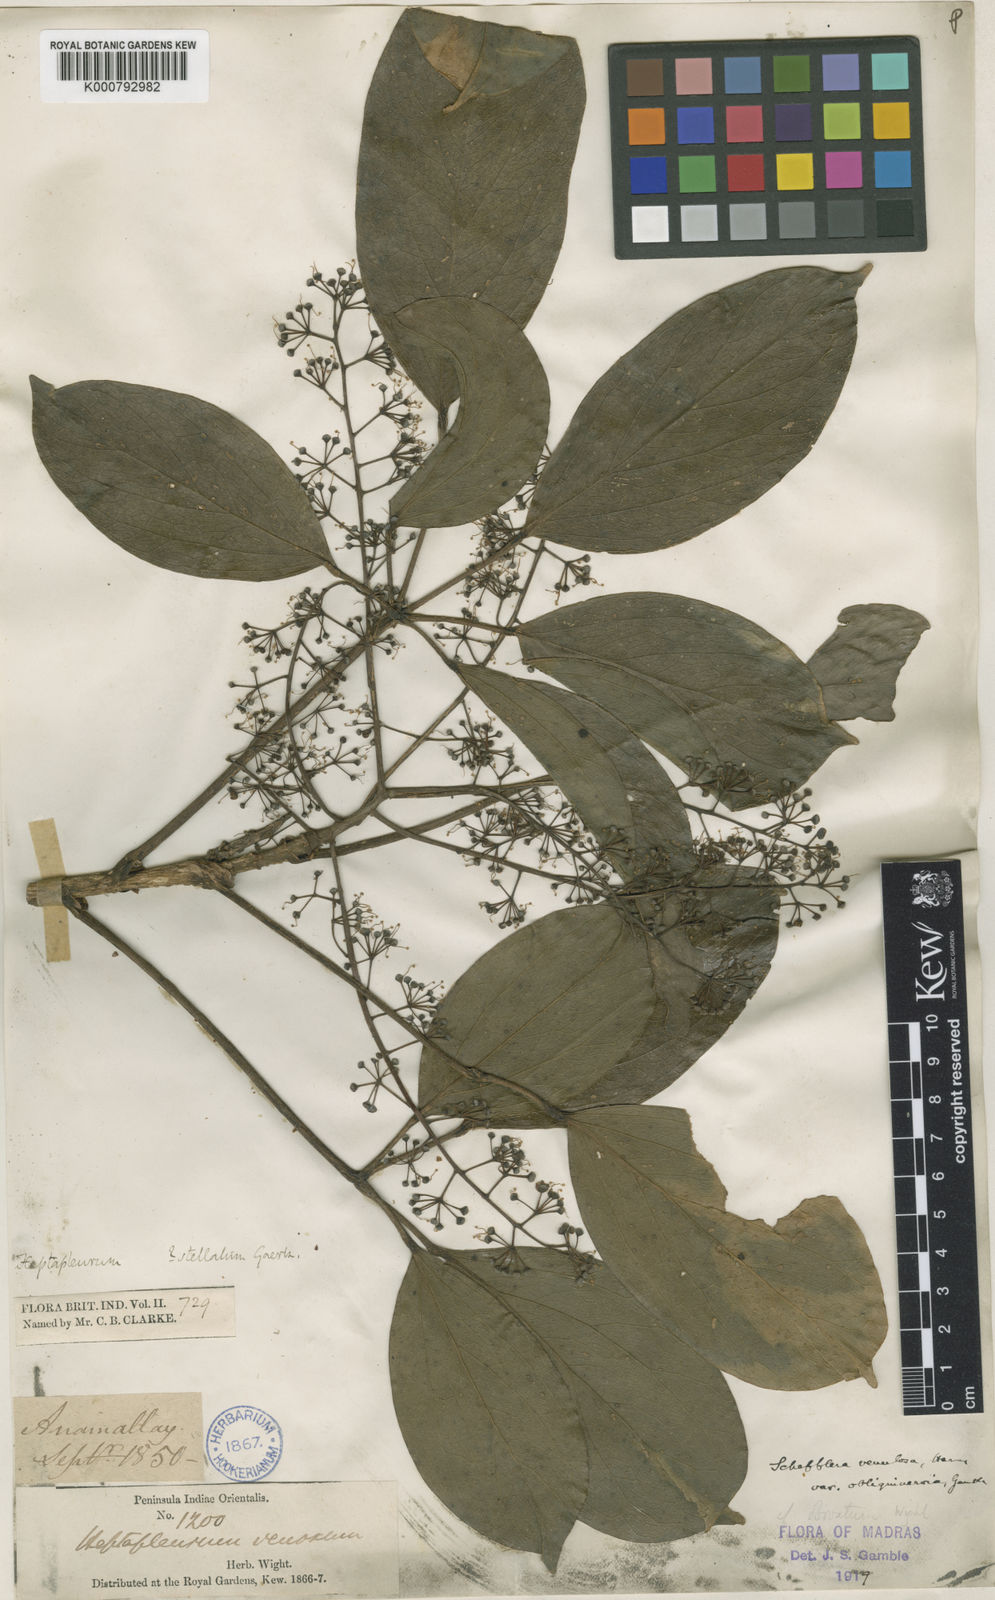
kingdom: Plantae
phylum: Tracheophyta
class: Magnoliopsida
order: Apiales
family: Araliaceae
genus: Heptapleurum
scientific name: Heptapleurum ellipticum
